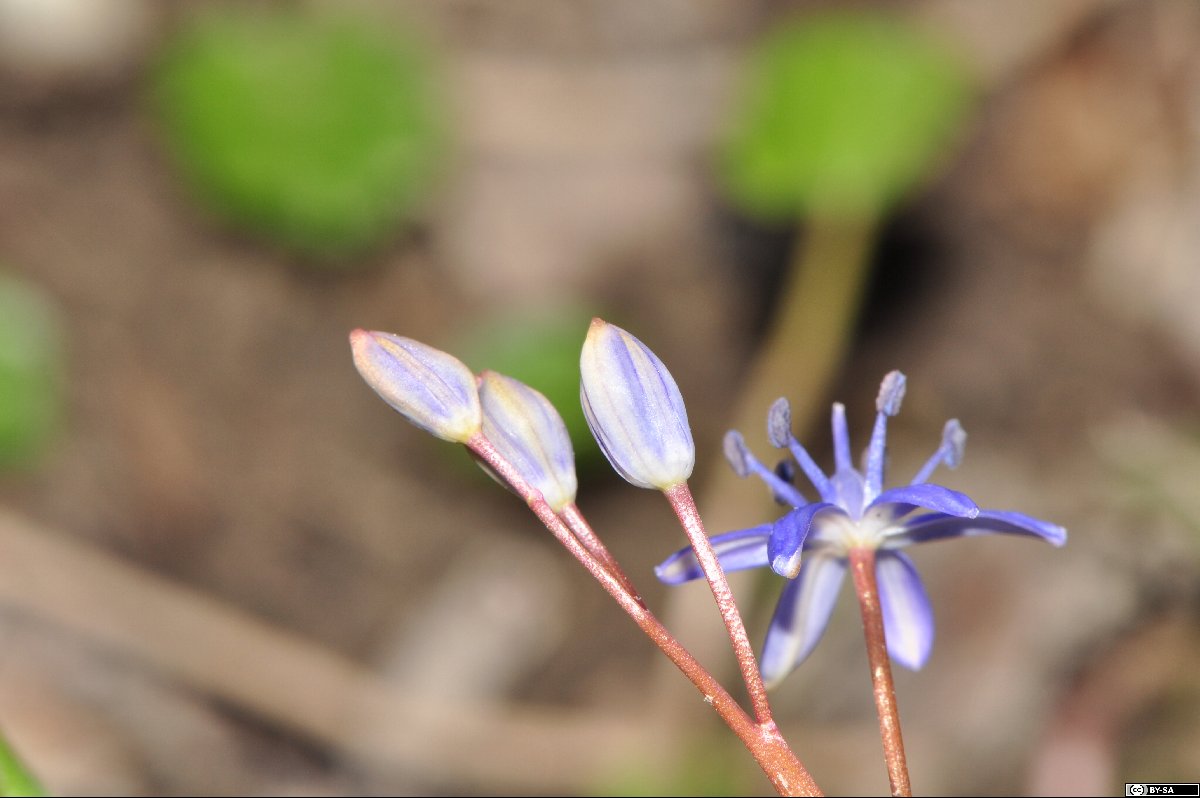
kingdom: Plantae
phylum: Tracheophyta
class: Liliopsida
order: Asparagales
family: Asparagaceae
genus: Scilla
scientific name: Scilla vindobonensis
